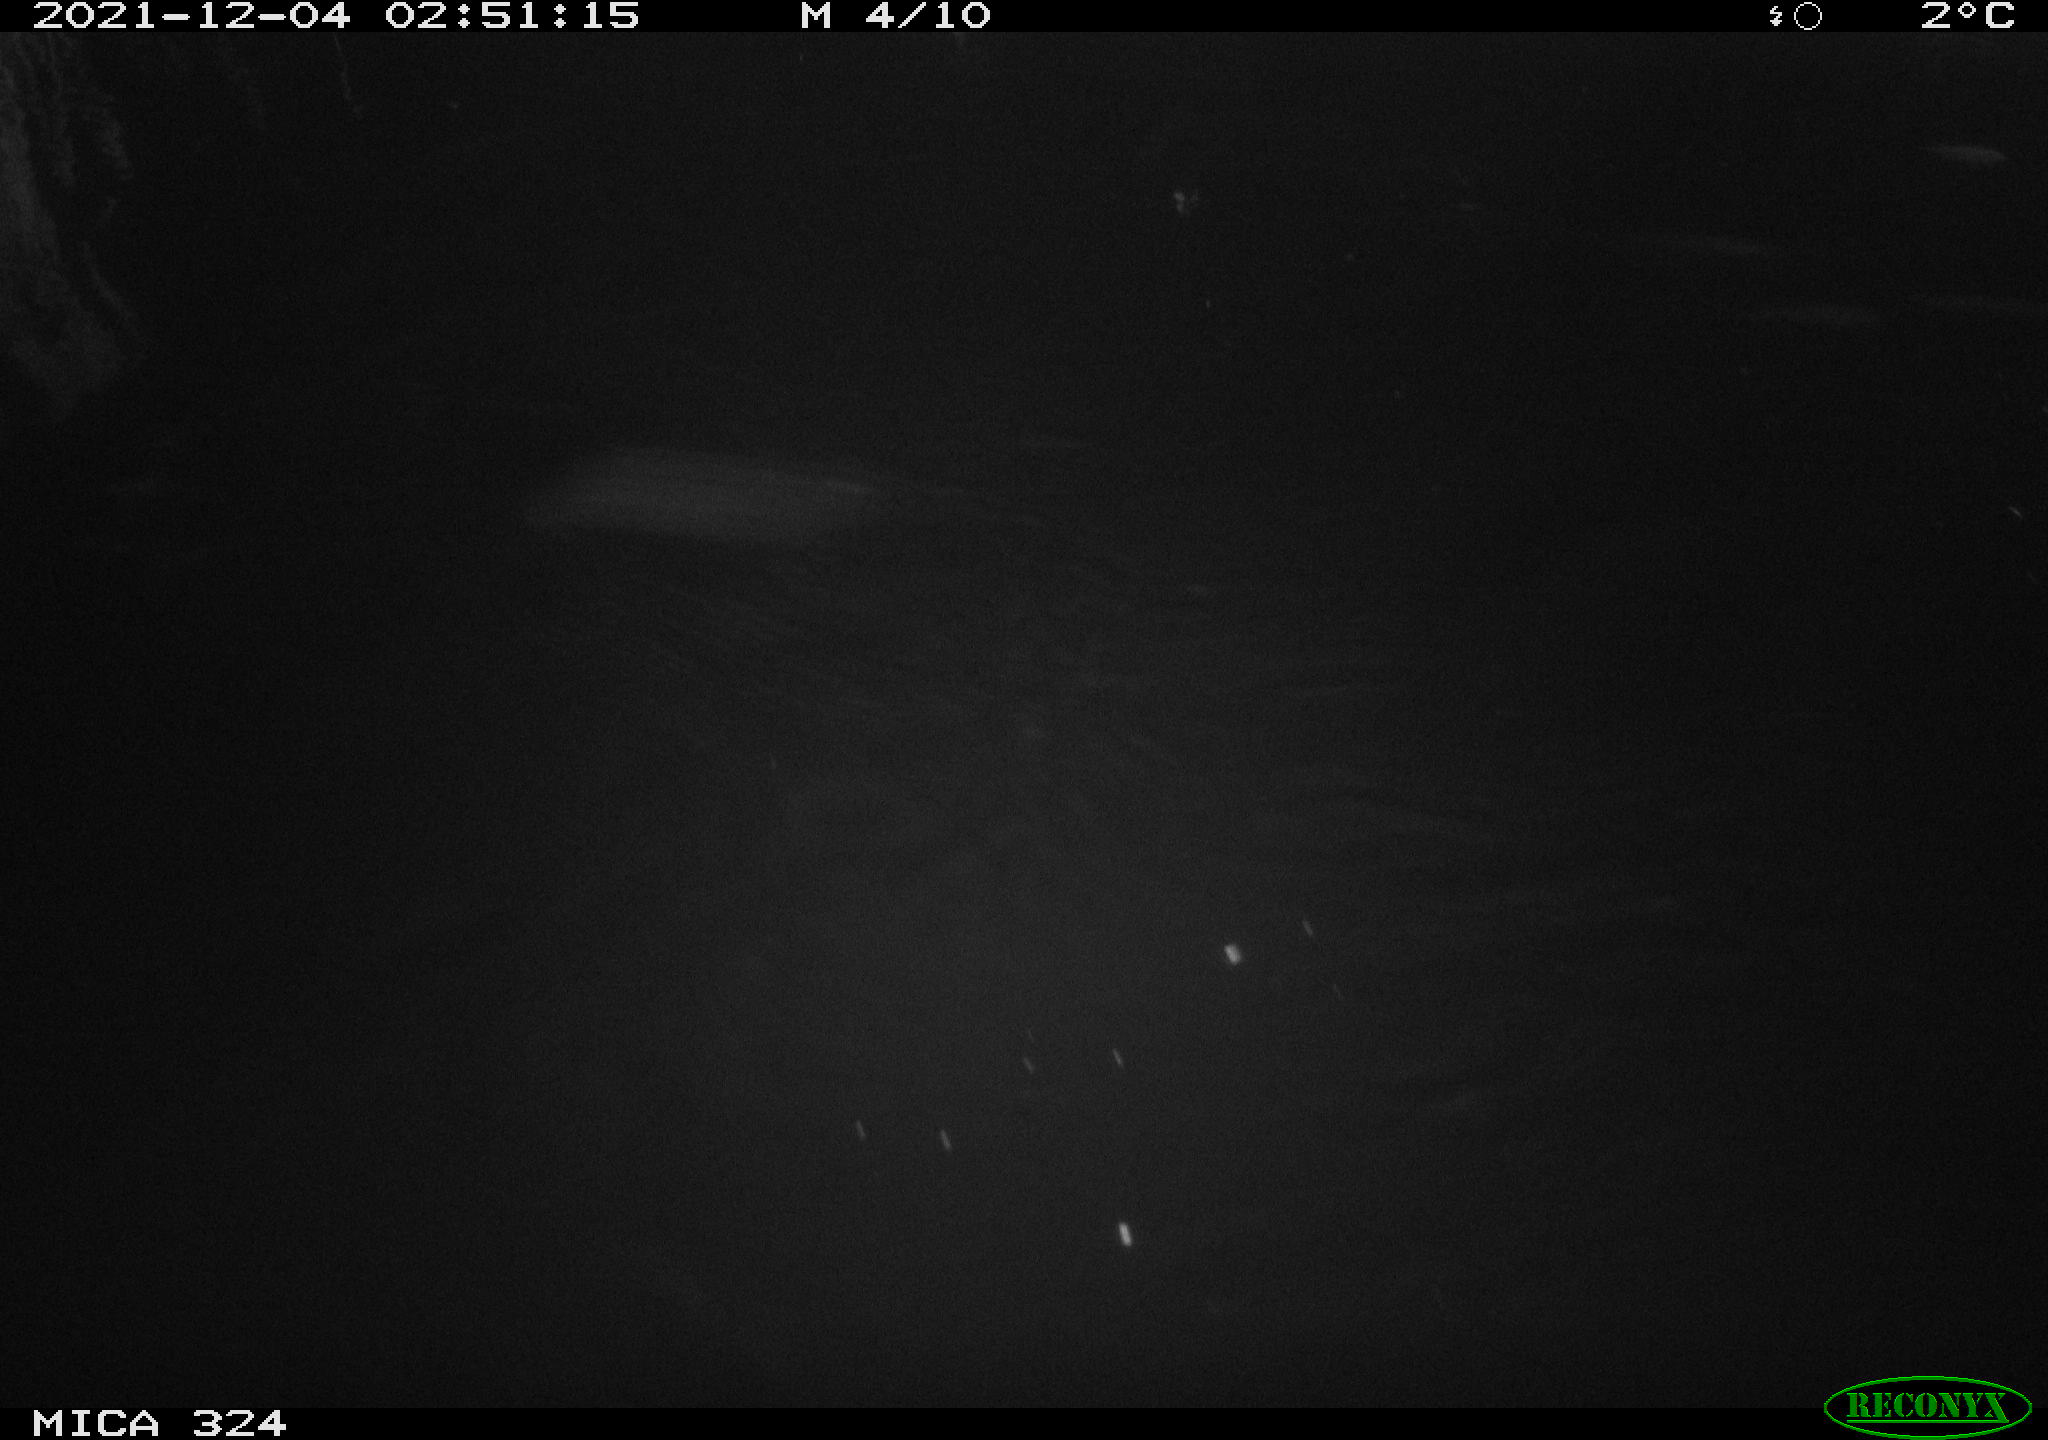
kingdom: Animalia
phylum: Chordata
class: Mammalia
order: Rodentia
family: Cricetidae
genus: Ondatra
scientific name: Ondatra zibethicus
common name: Muskrat
